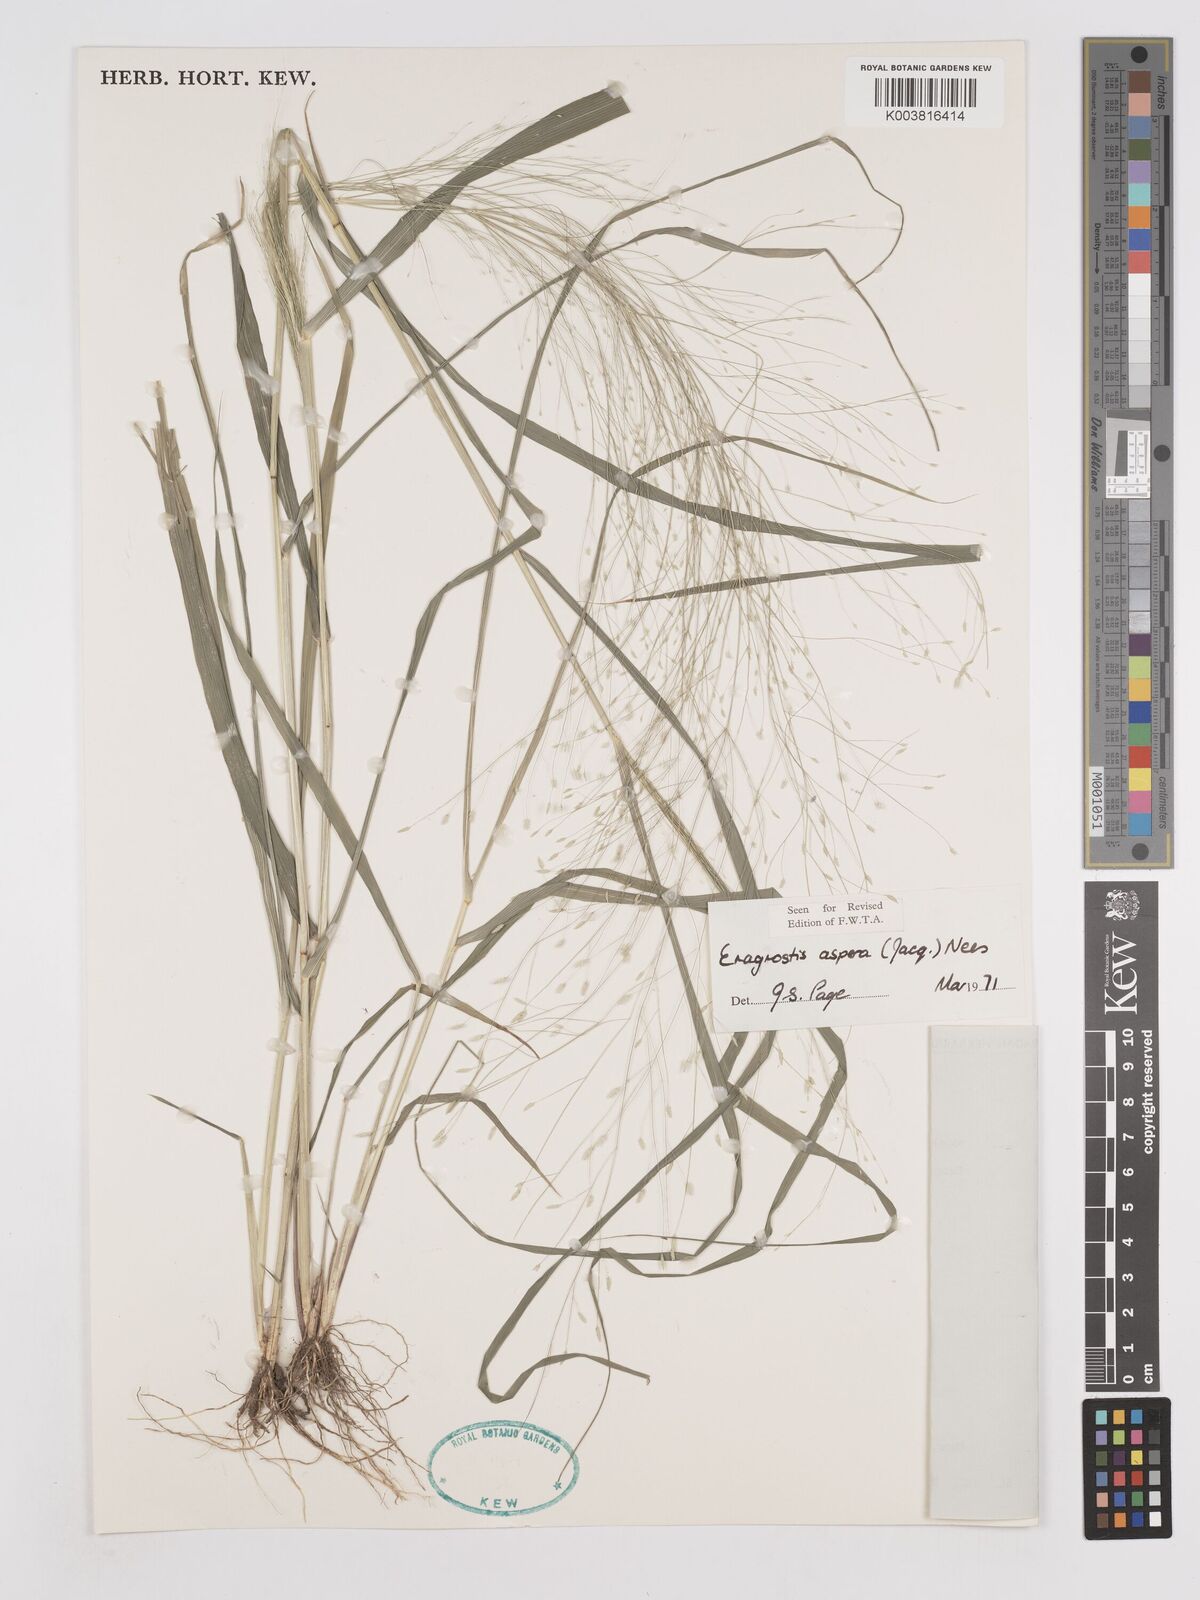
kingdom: Plantae
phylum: Tracheophyta
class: Liliopsida
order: Poales
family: Poaceae
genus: Eragrostis
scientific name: Eragrostis aspera
